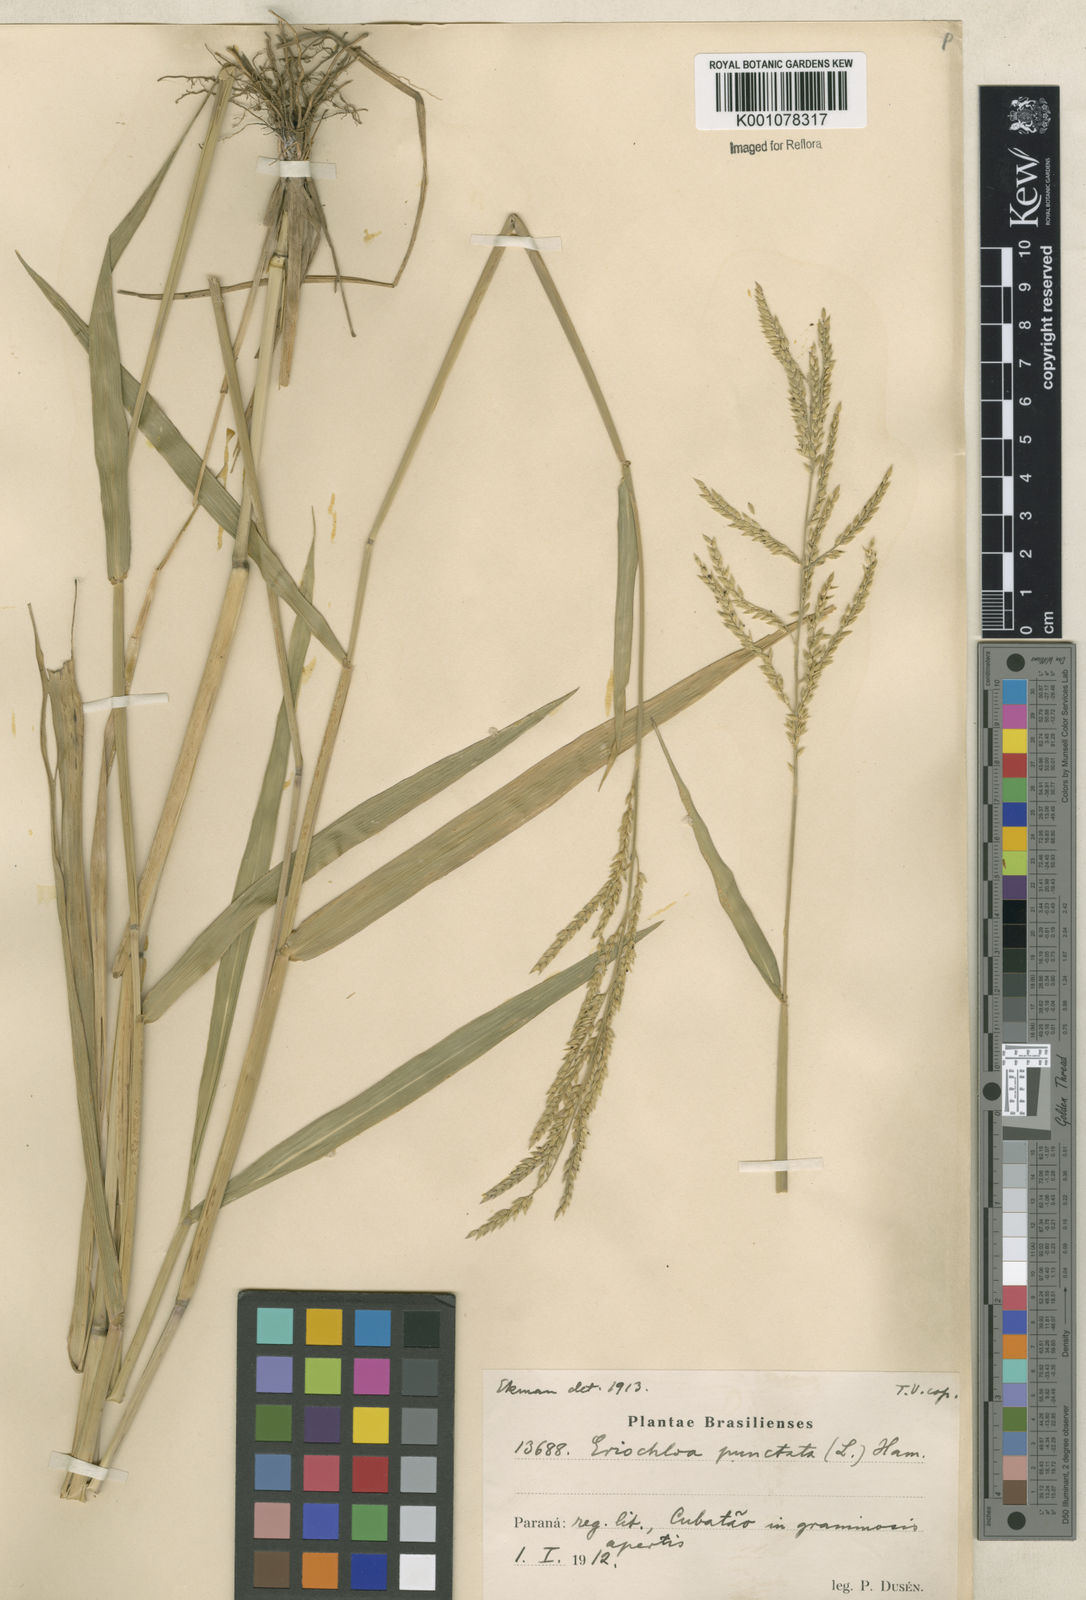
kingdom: Plantae
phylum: Tracheophyta
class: Liliopsida
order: Poales
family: Poaceae
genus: Eriochloa
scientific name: Eriochloa punctata
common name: Louisiana cupgrass
